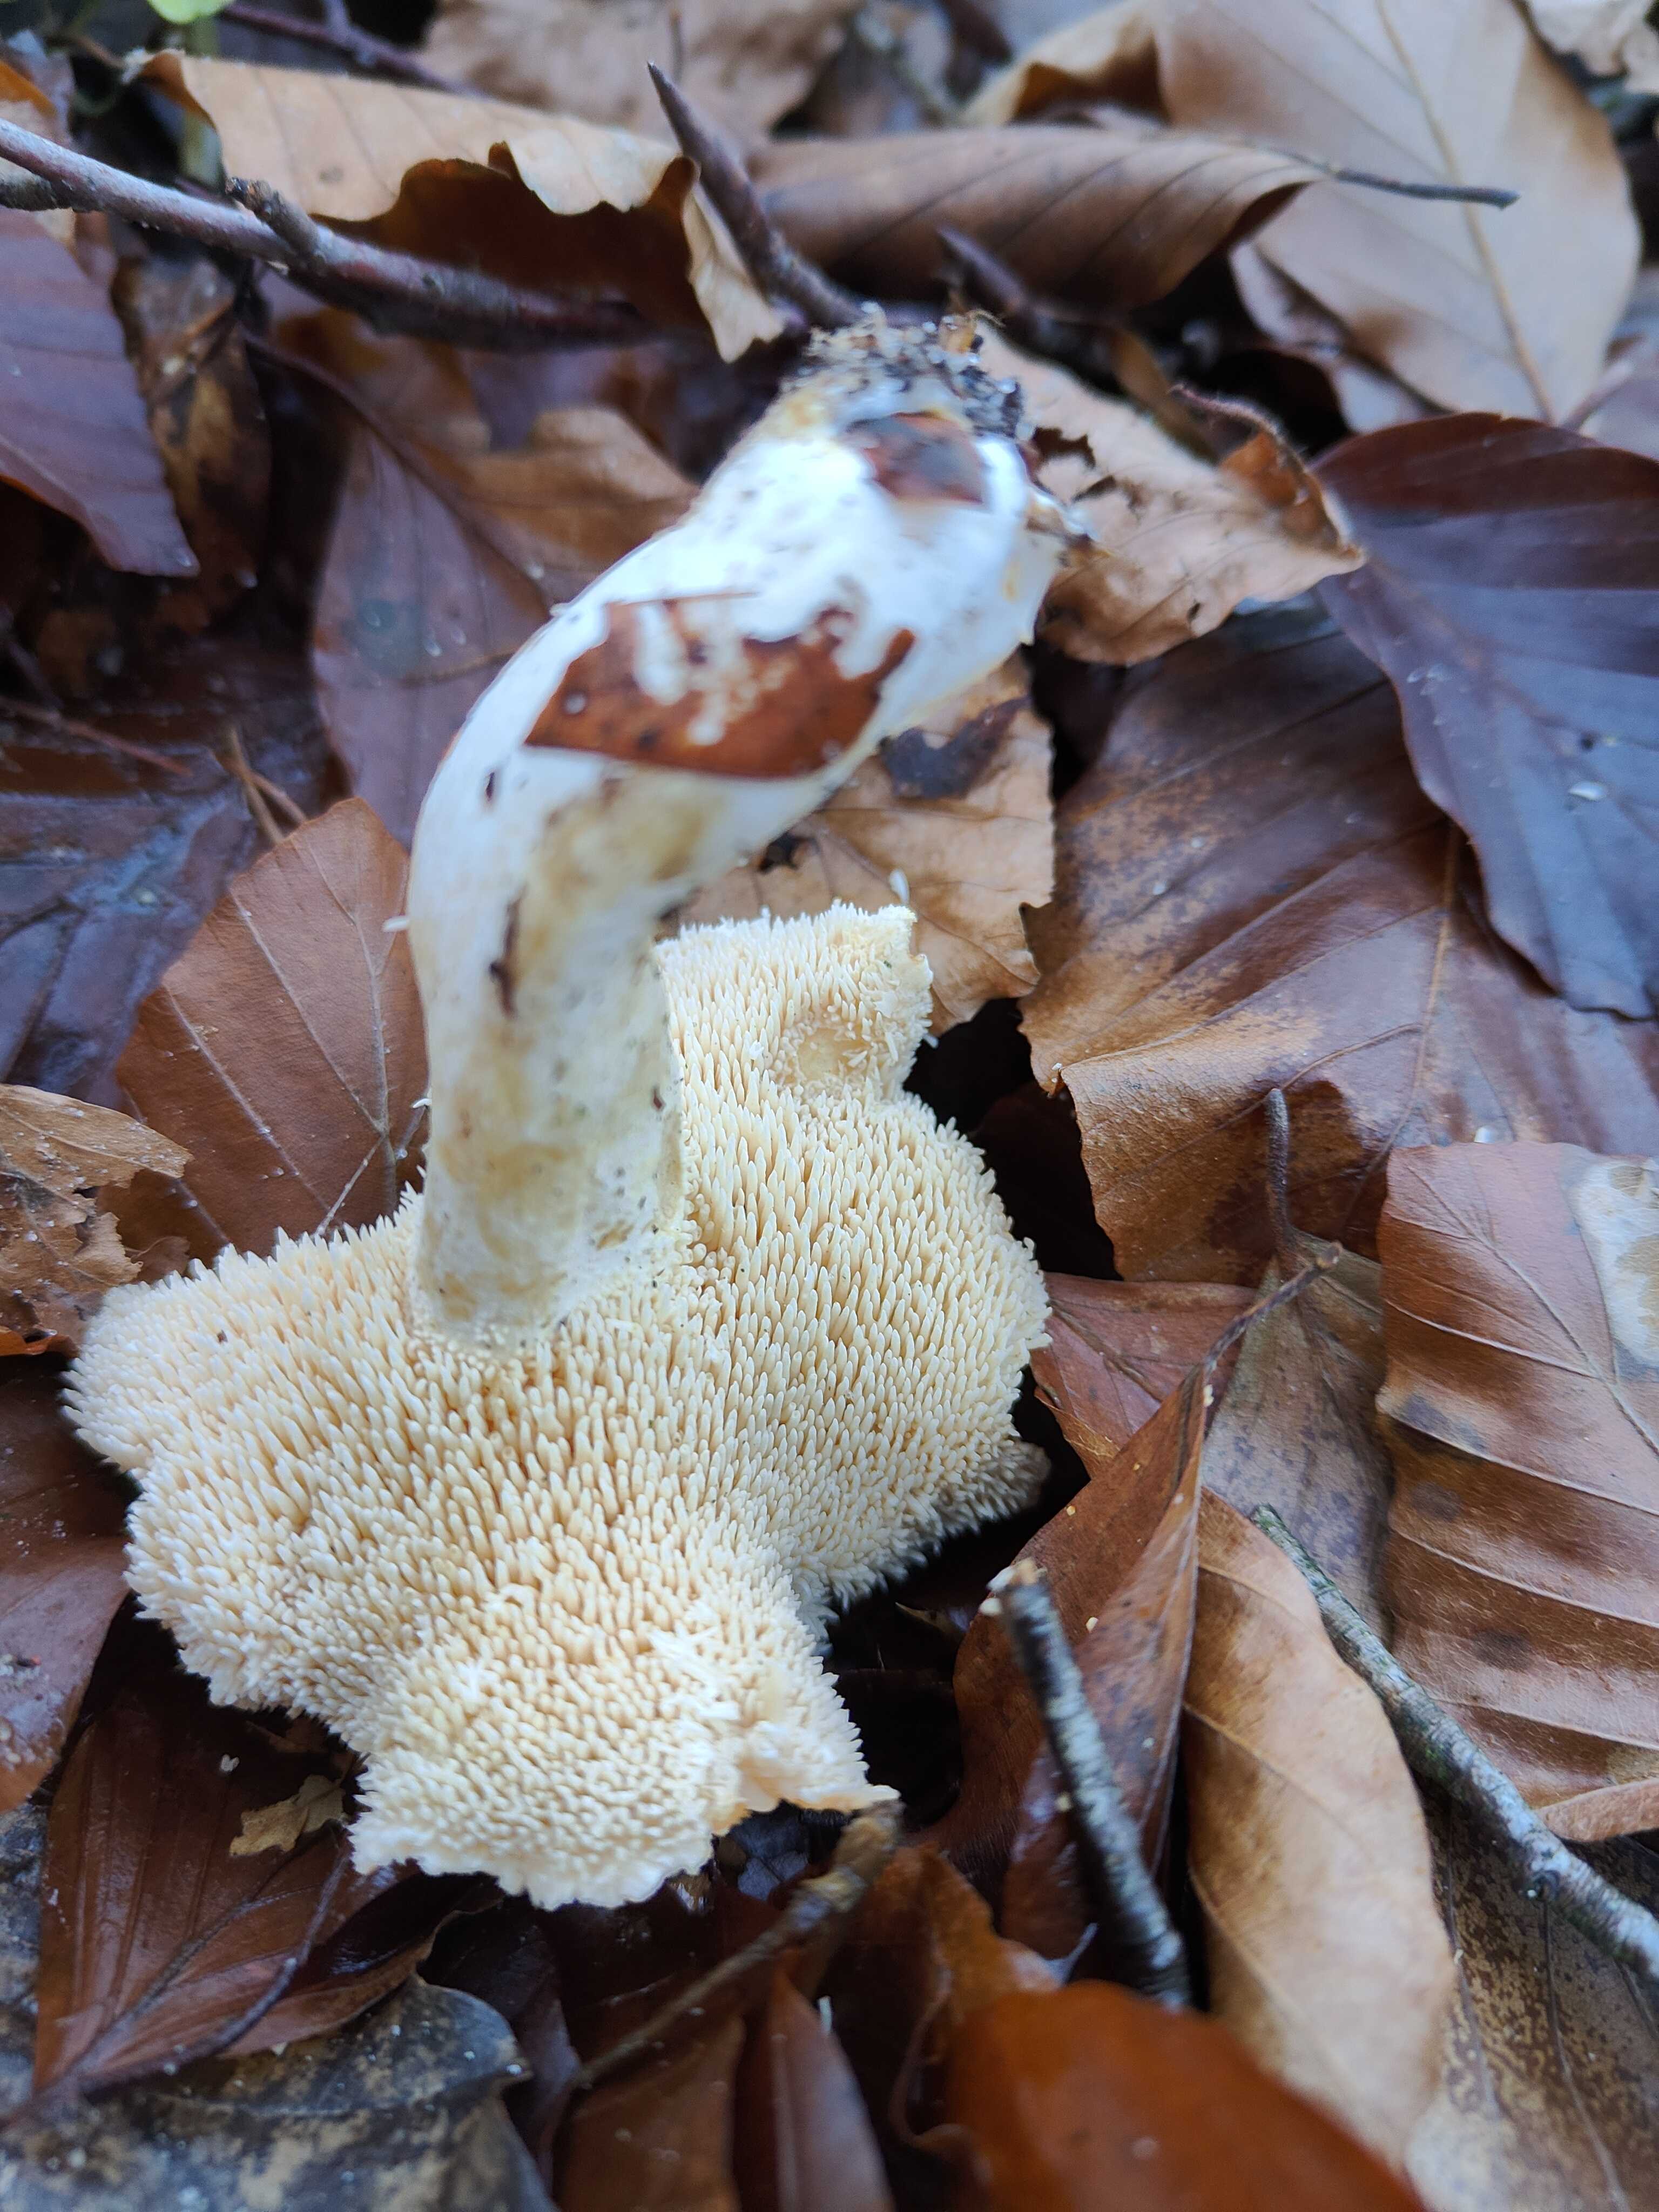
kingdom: Fungi
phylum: Basidiomycota
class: Agaricomycetes
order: Cantharellales
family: Hydnaceae
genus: Hydnum
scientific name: Hydnum repandum
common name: almindelig pigsvamp
